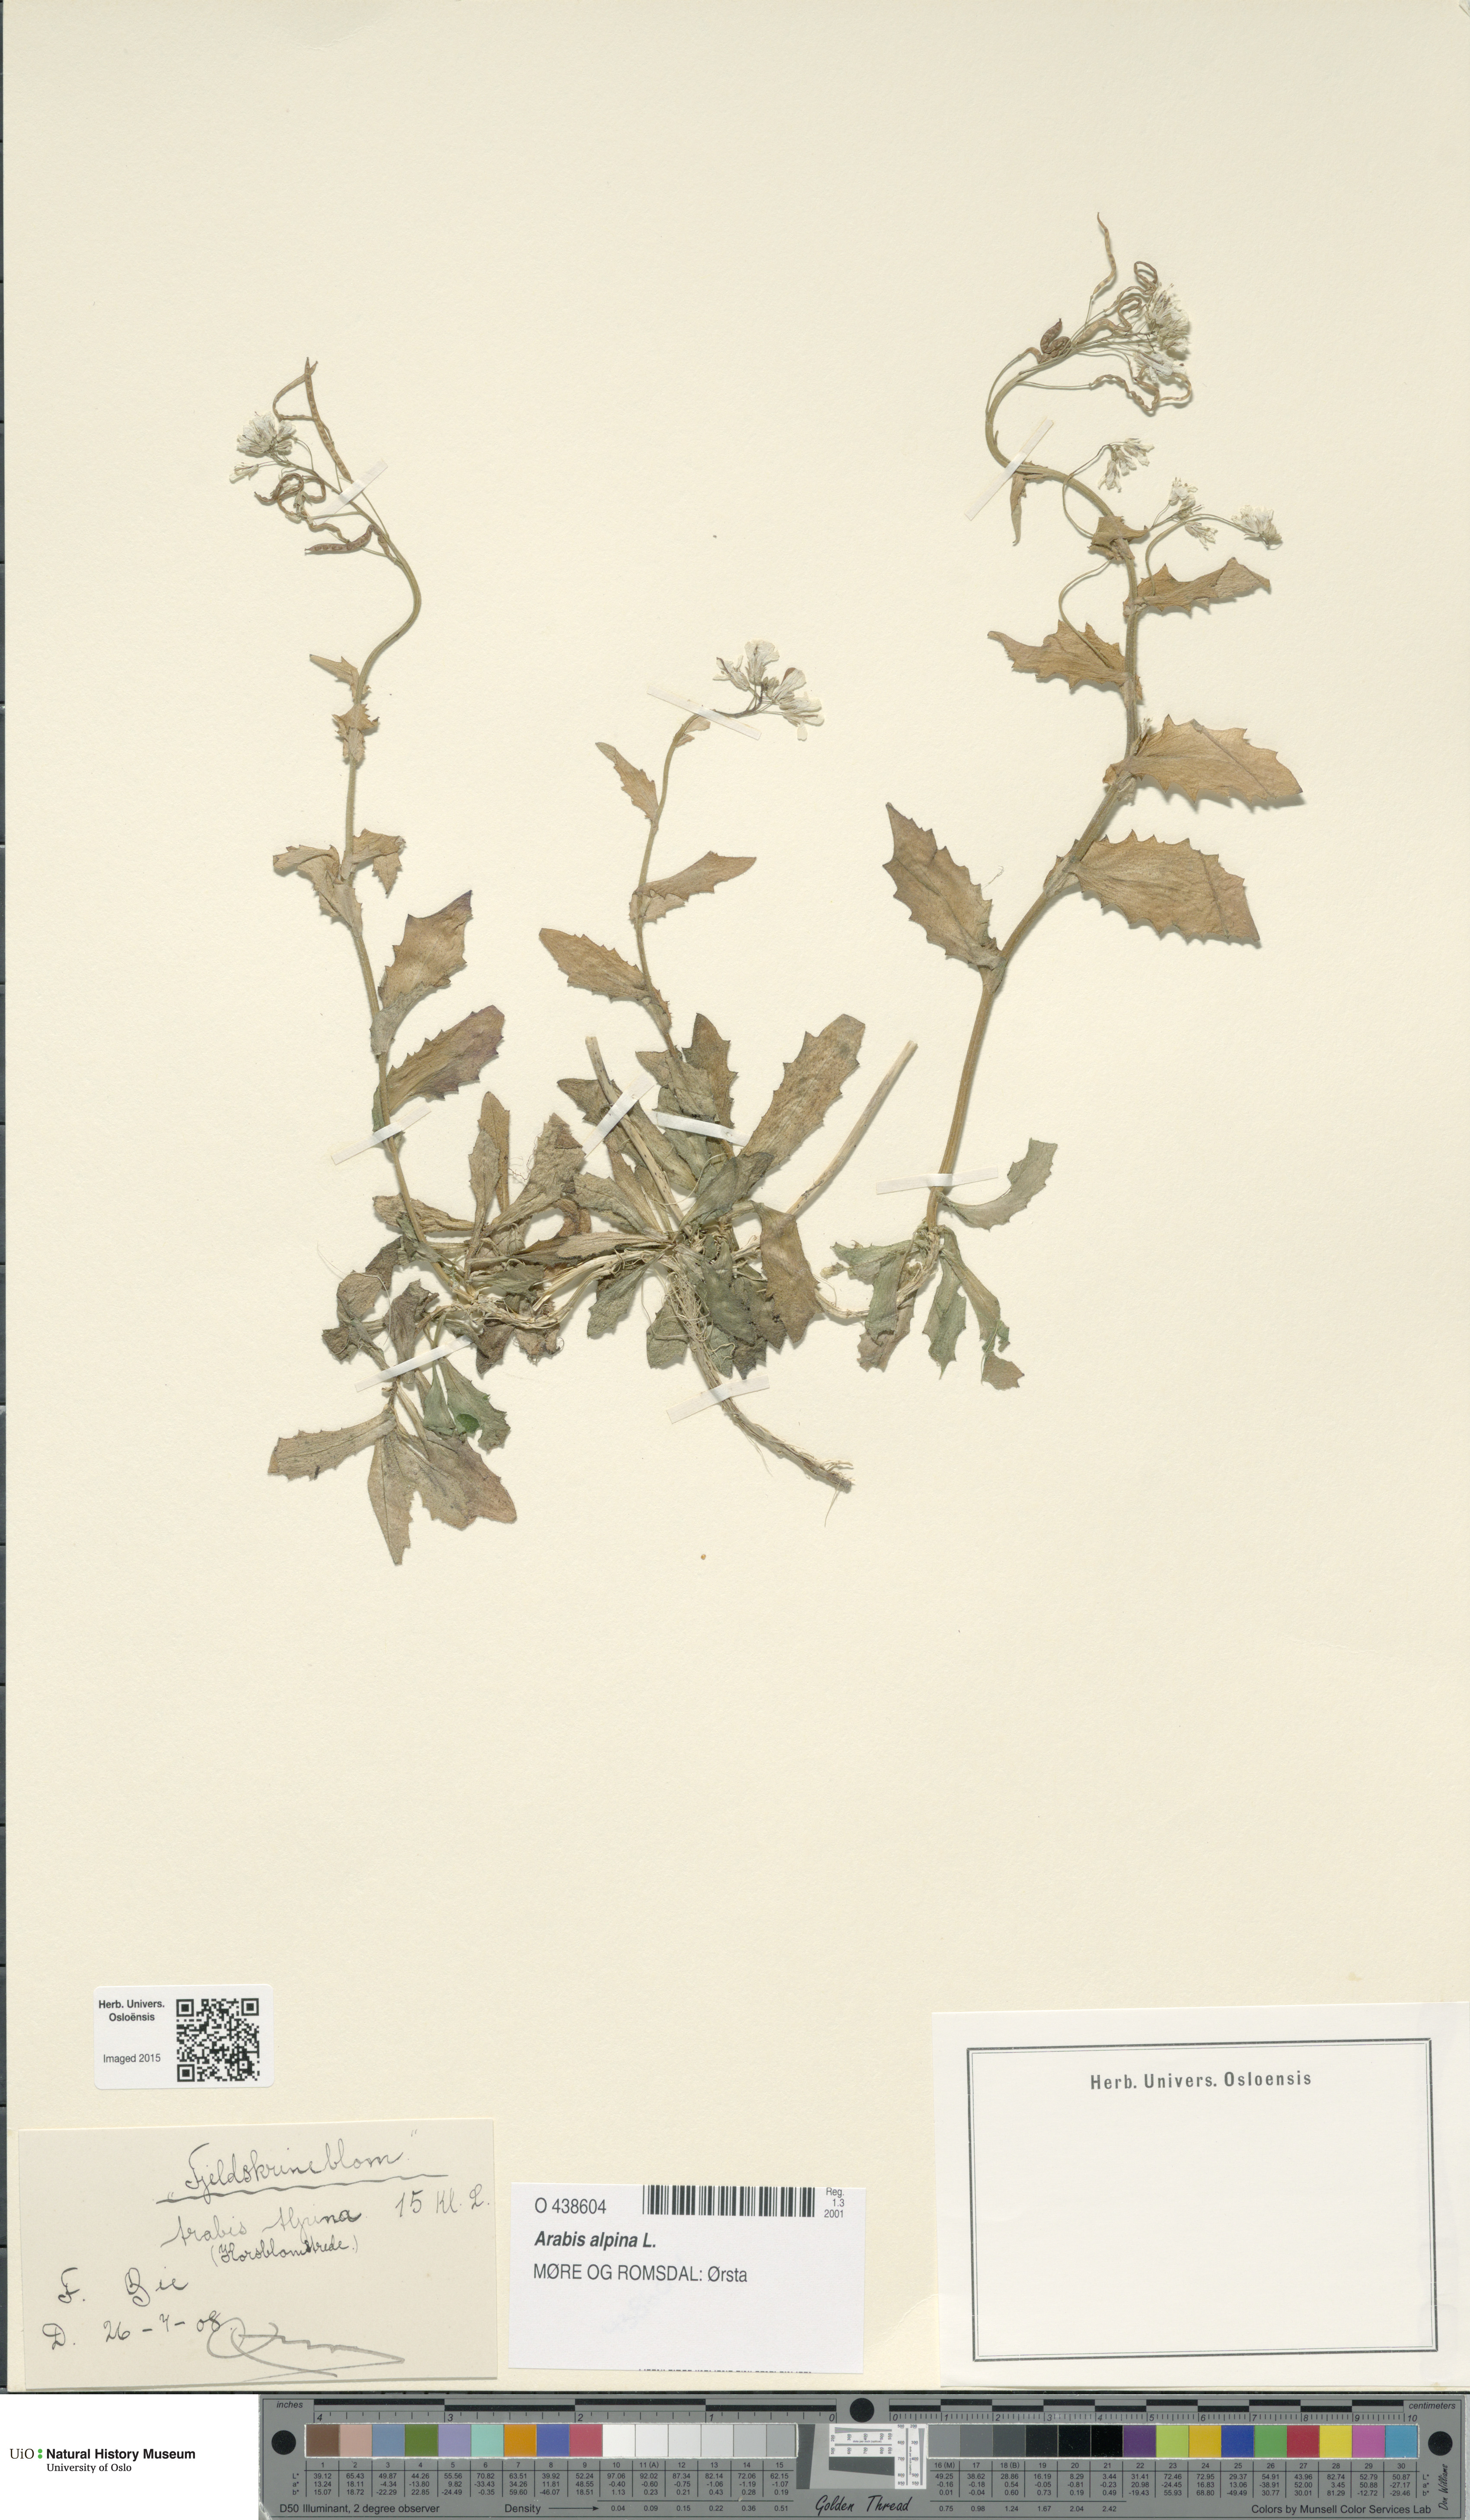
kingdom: Plantae
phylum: Tracheophyta
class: Magnoliopsida
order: Brassicales
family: Brassicaceae
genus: Arabis
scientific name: Arabis alpina
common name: Alpine rock-cress
